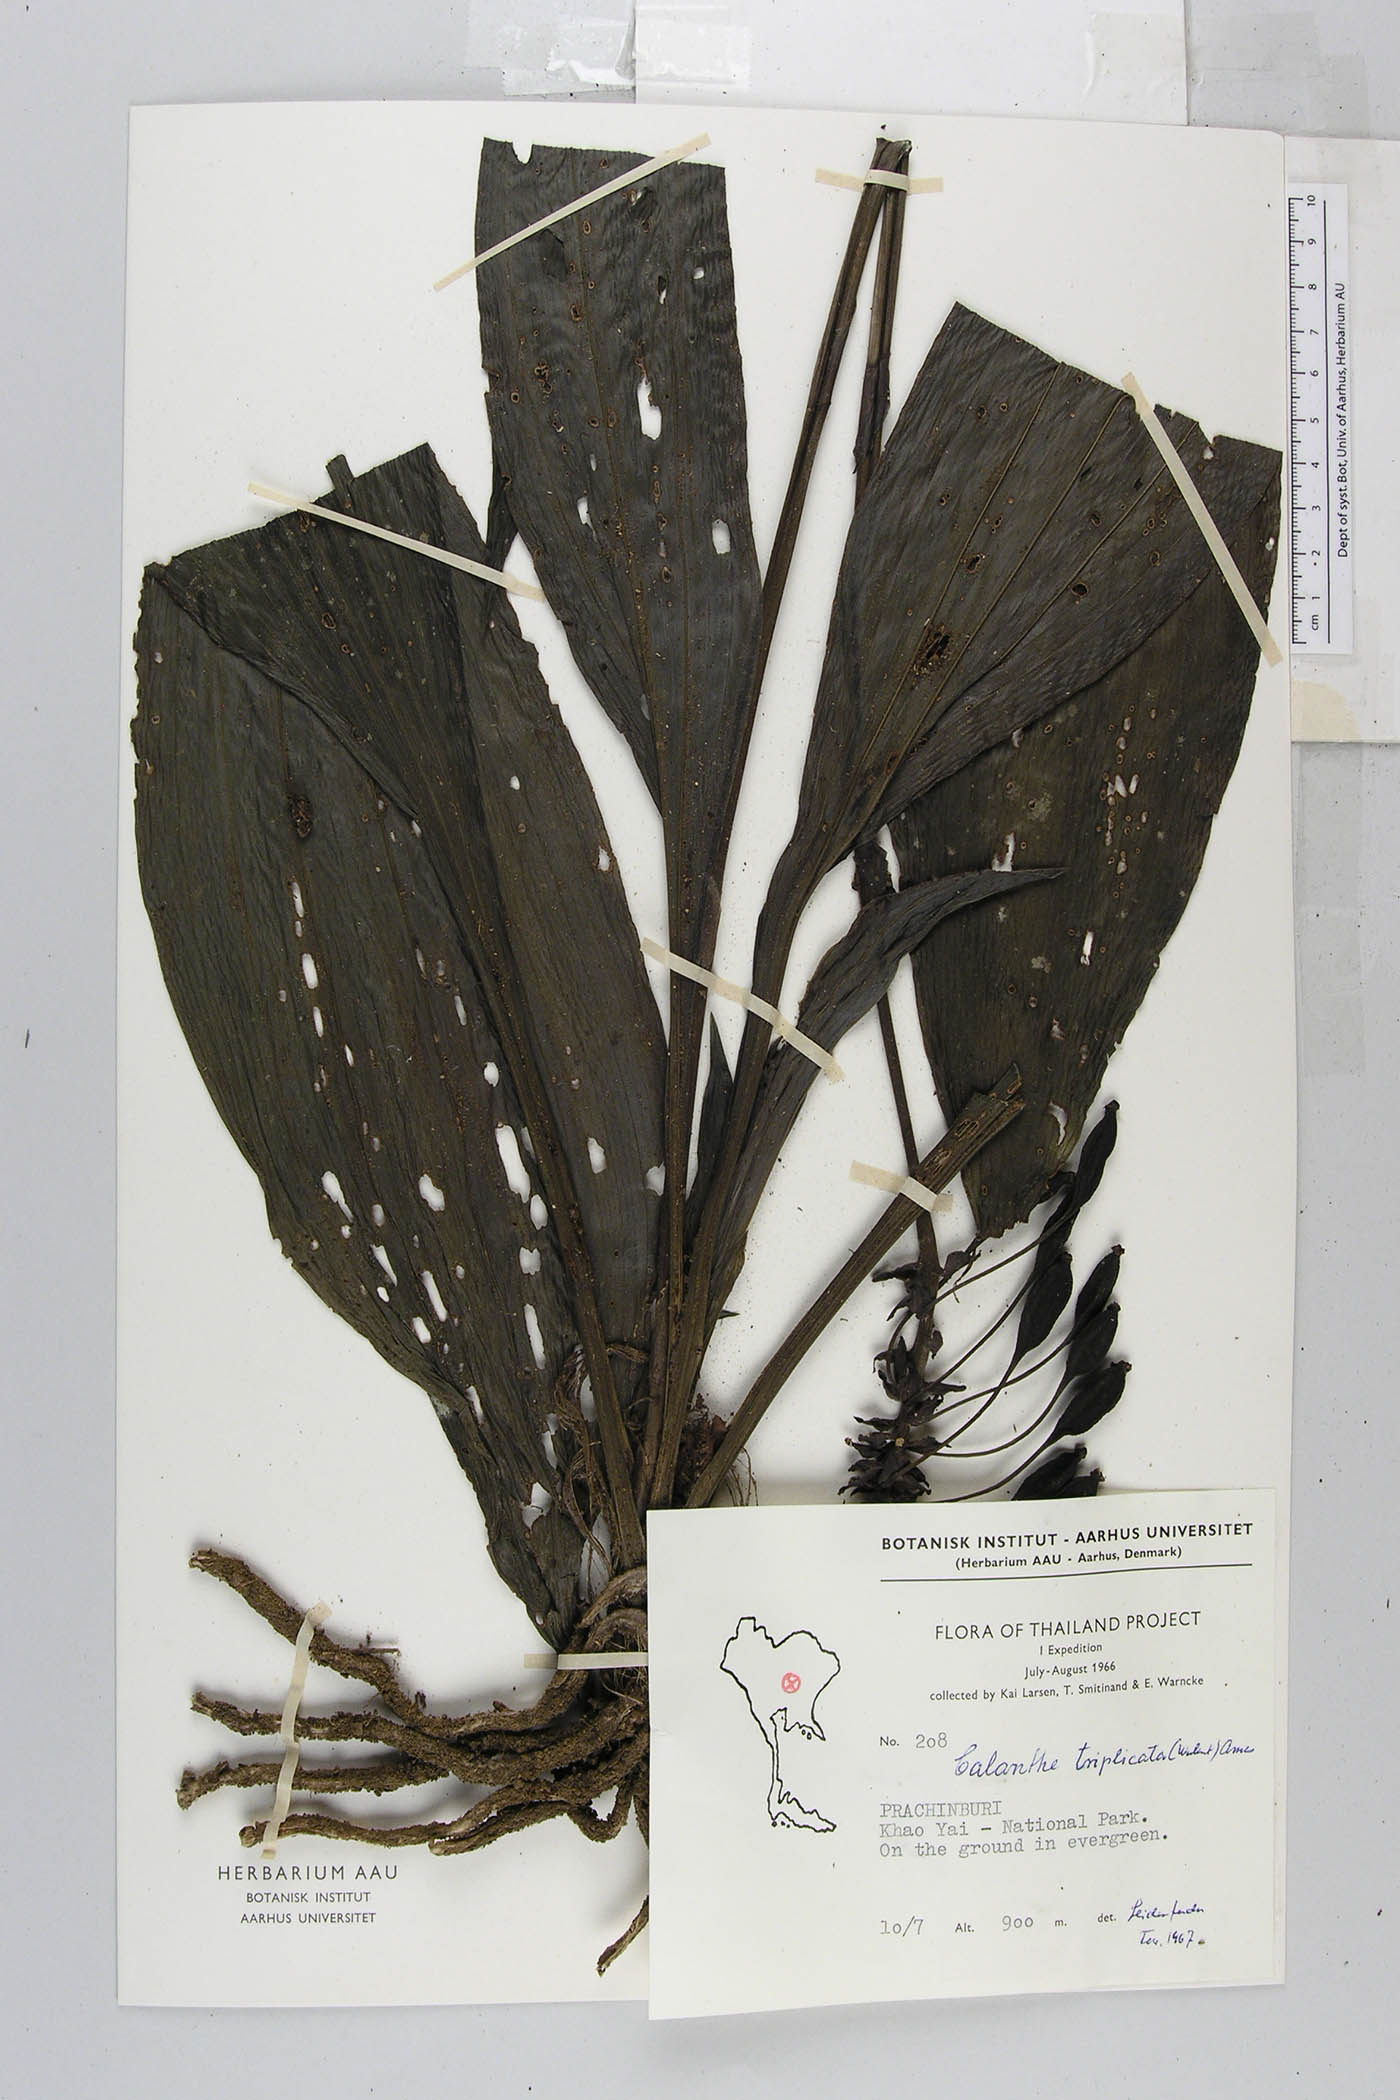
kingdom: Plantae
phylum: Tracheophyta
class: Liliopsida
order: Asparagales
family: Orchidaceae
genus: Calanthe
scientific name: Calanthe triplicata
